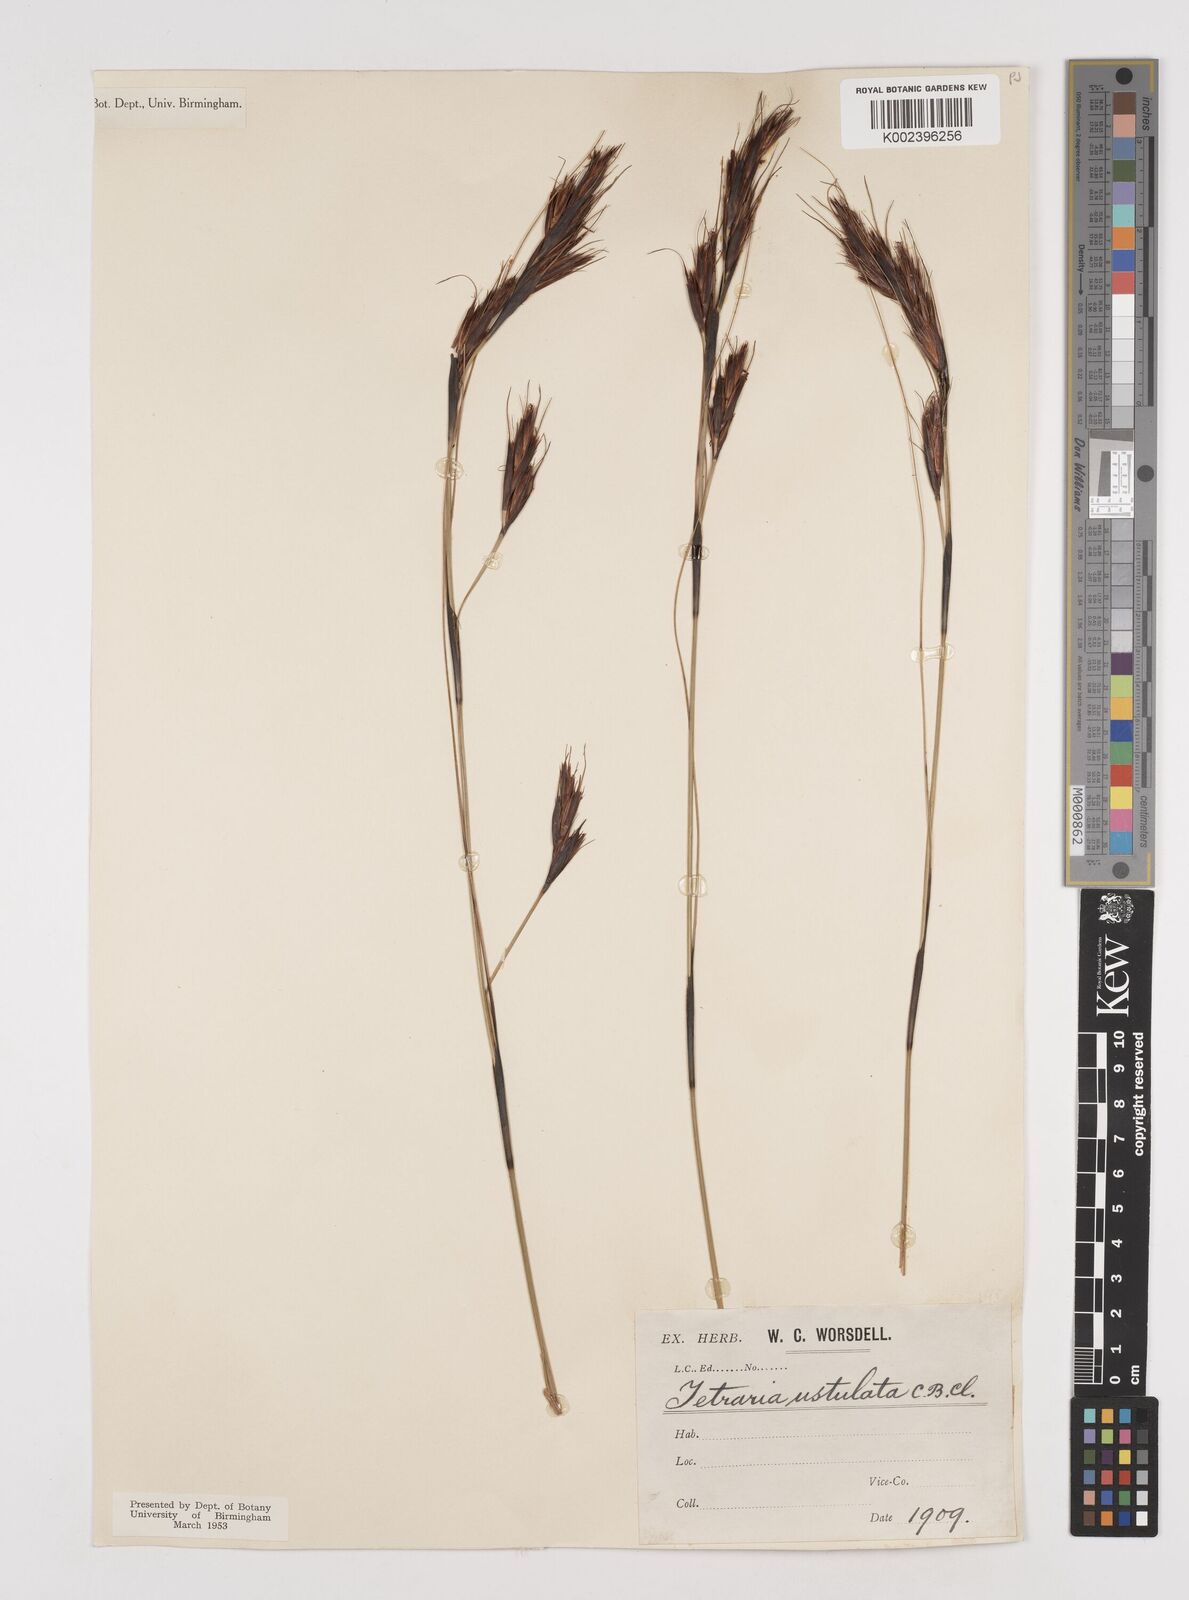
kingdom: Plantae
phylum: Tracheophyta
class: Liliopsida
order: Poales
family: Cyperaceae
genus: Tetraria
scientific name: Tetraria ustulata
